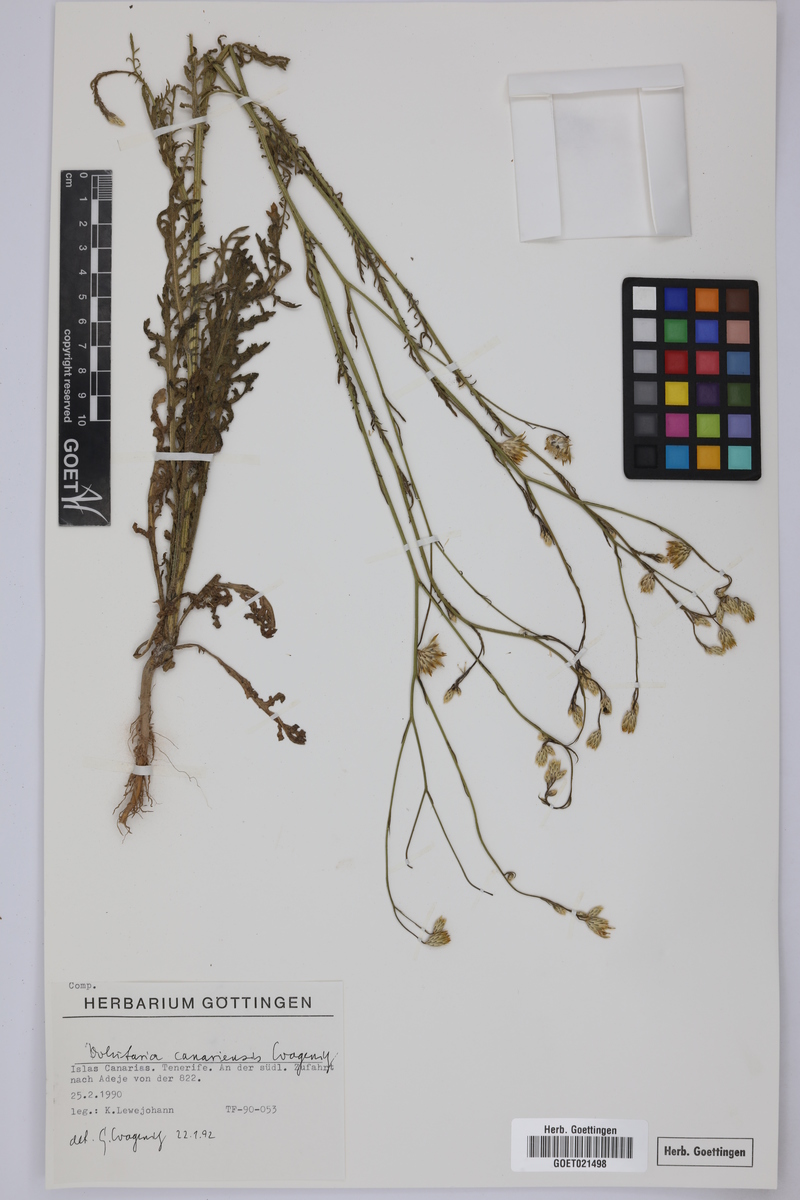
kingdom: Plantae
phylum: Tracheophyta
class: Magnoliopsida
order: Asterales
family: Asteraceae
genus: Volutaria
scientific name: Volutaria canariensis
